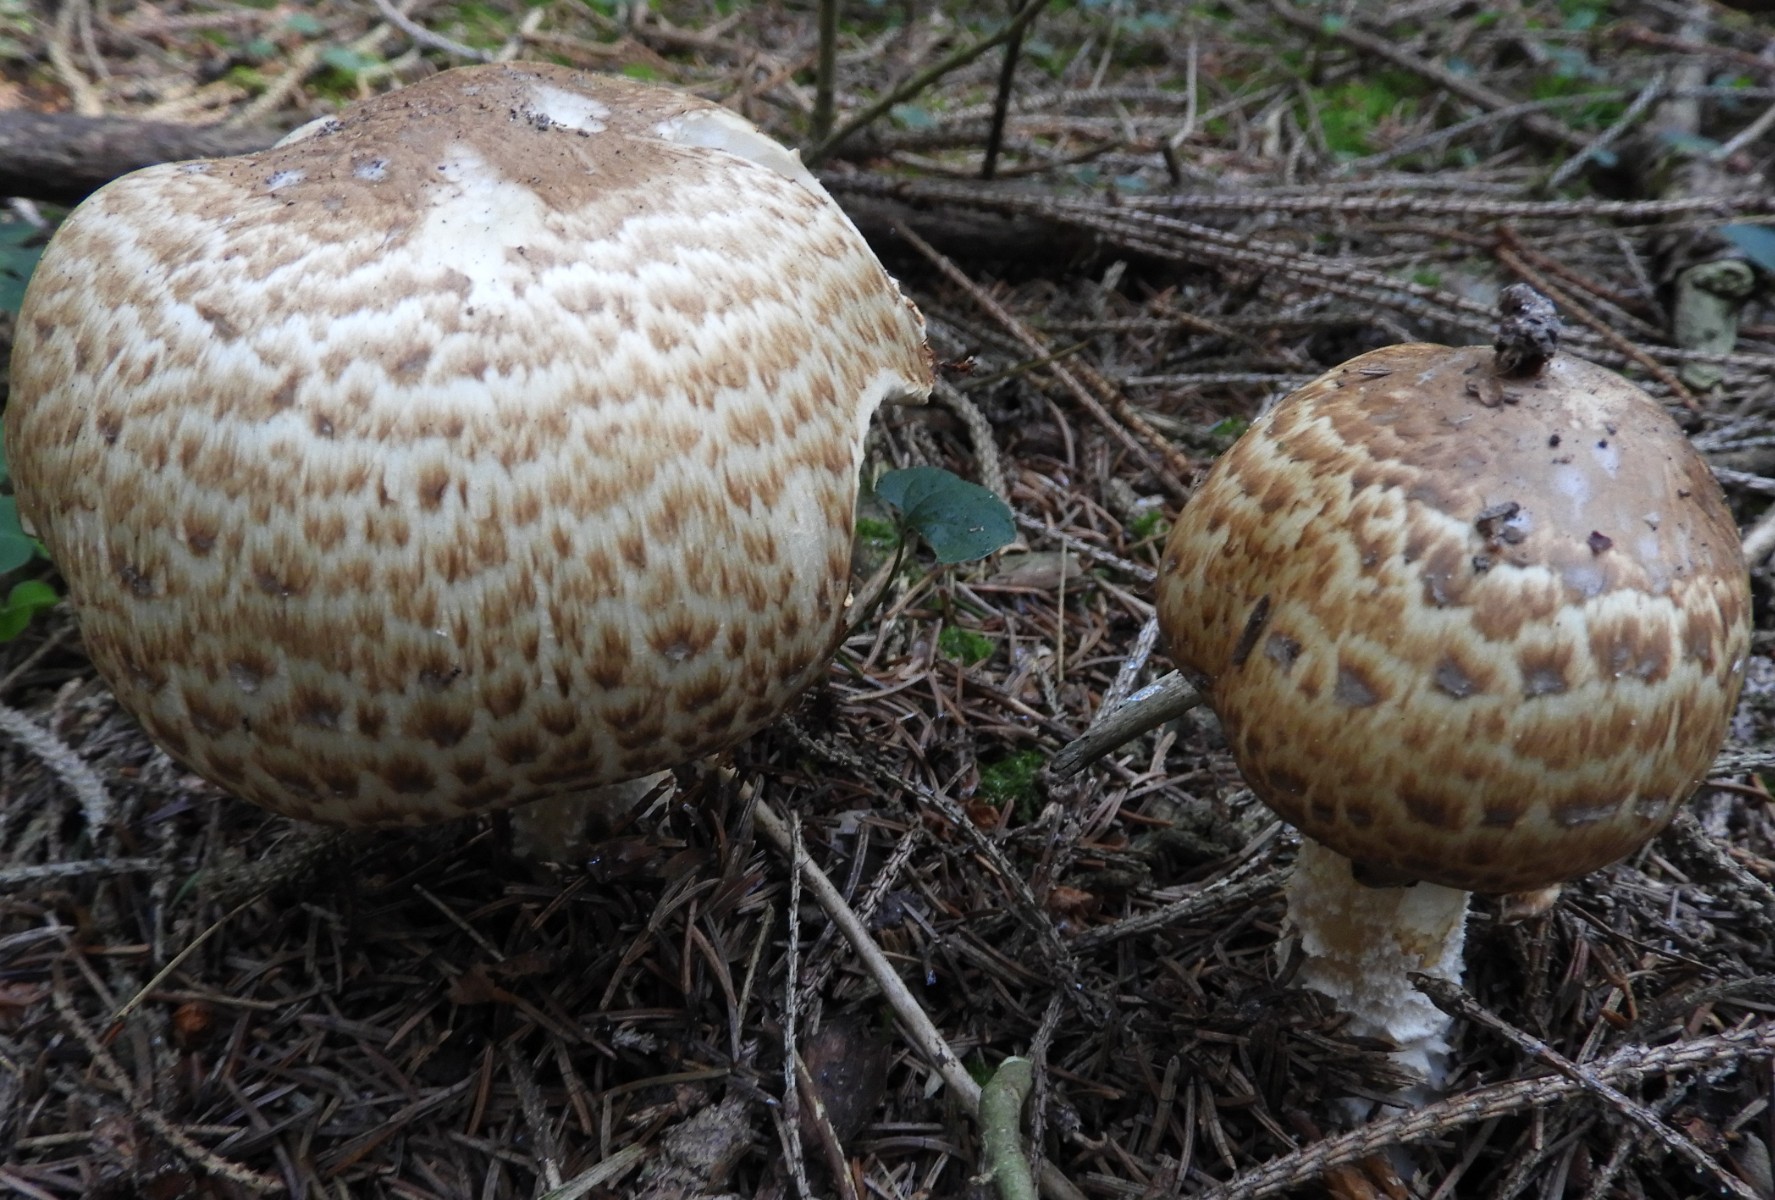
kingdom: Fungi
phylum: Basidiomycota
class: Agaricomycetes
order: Agaricales
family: Agaricaceae
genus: Agaricus
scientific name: Agaricus
